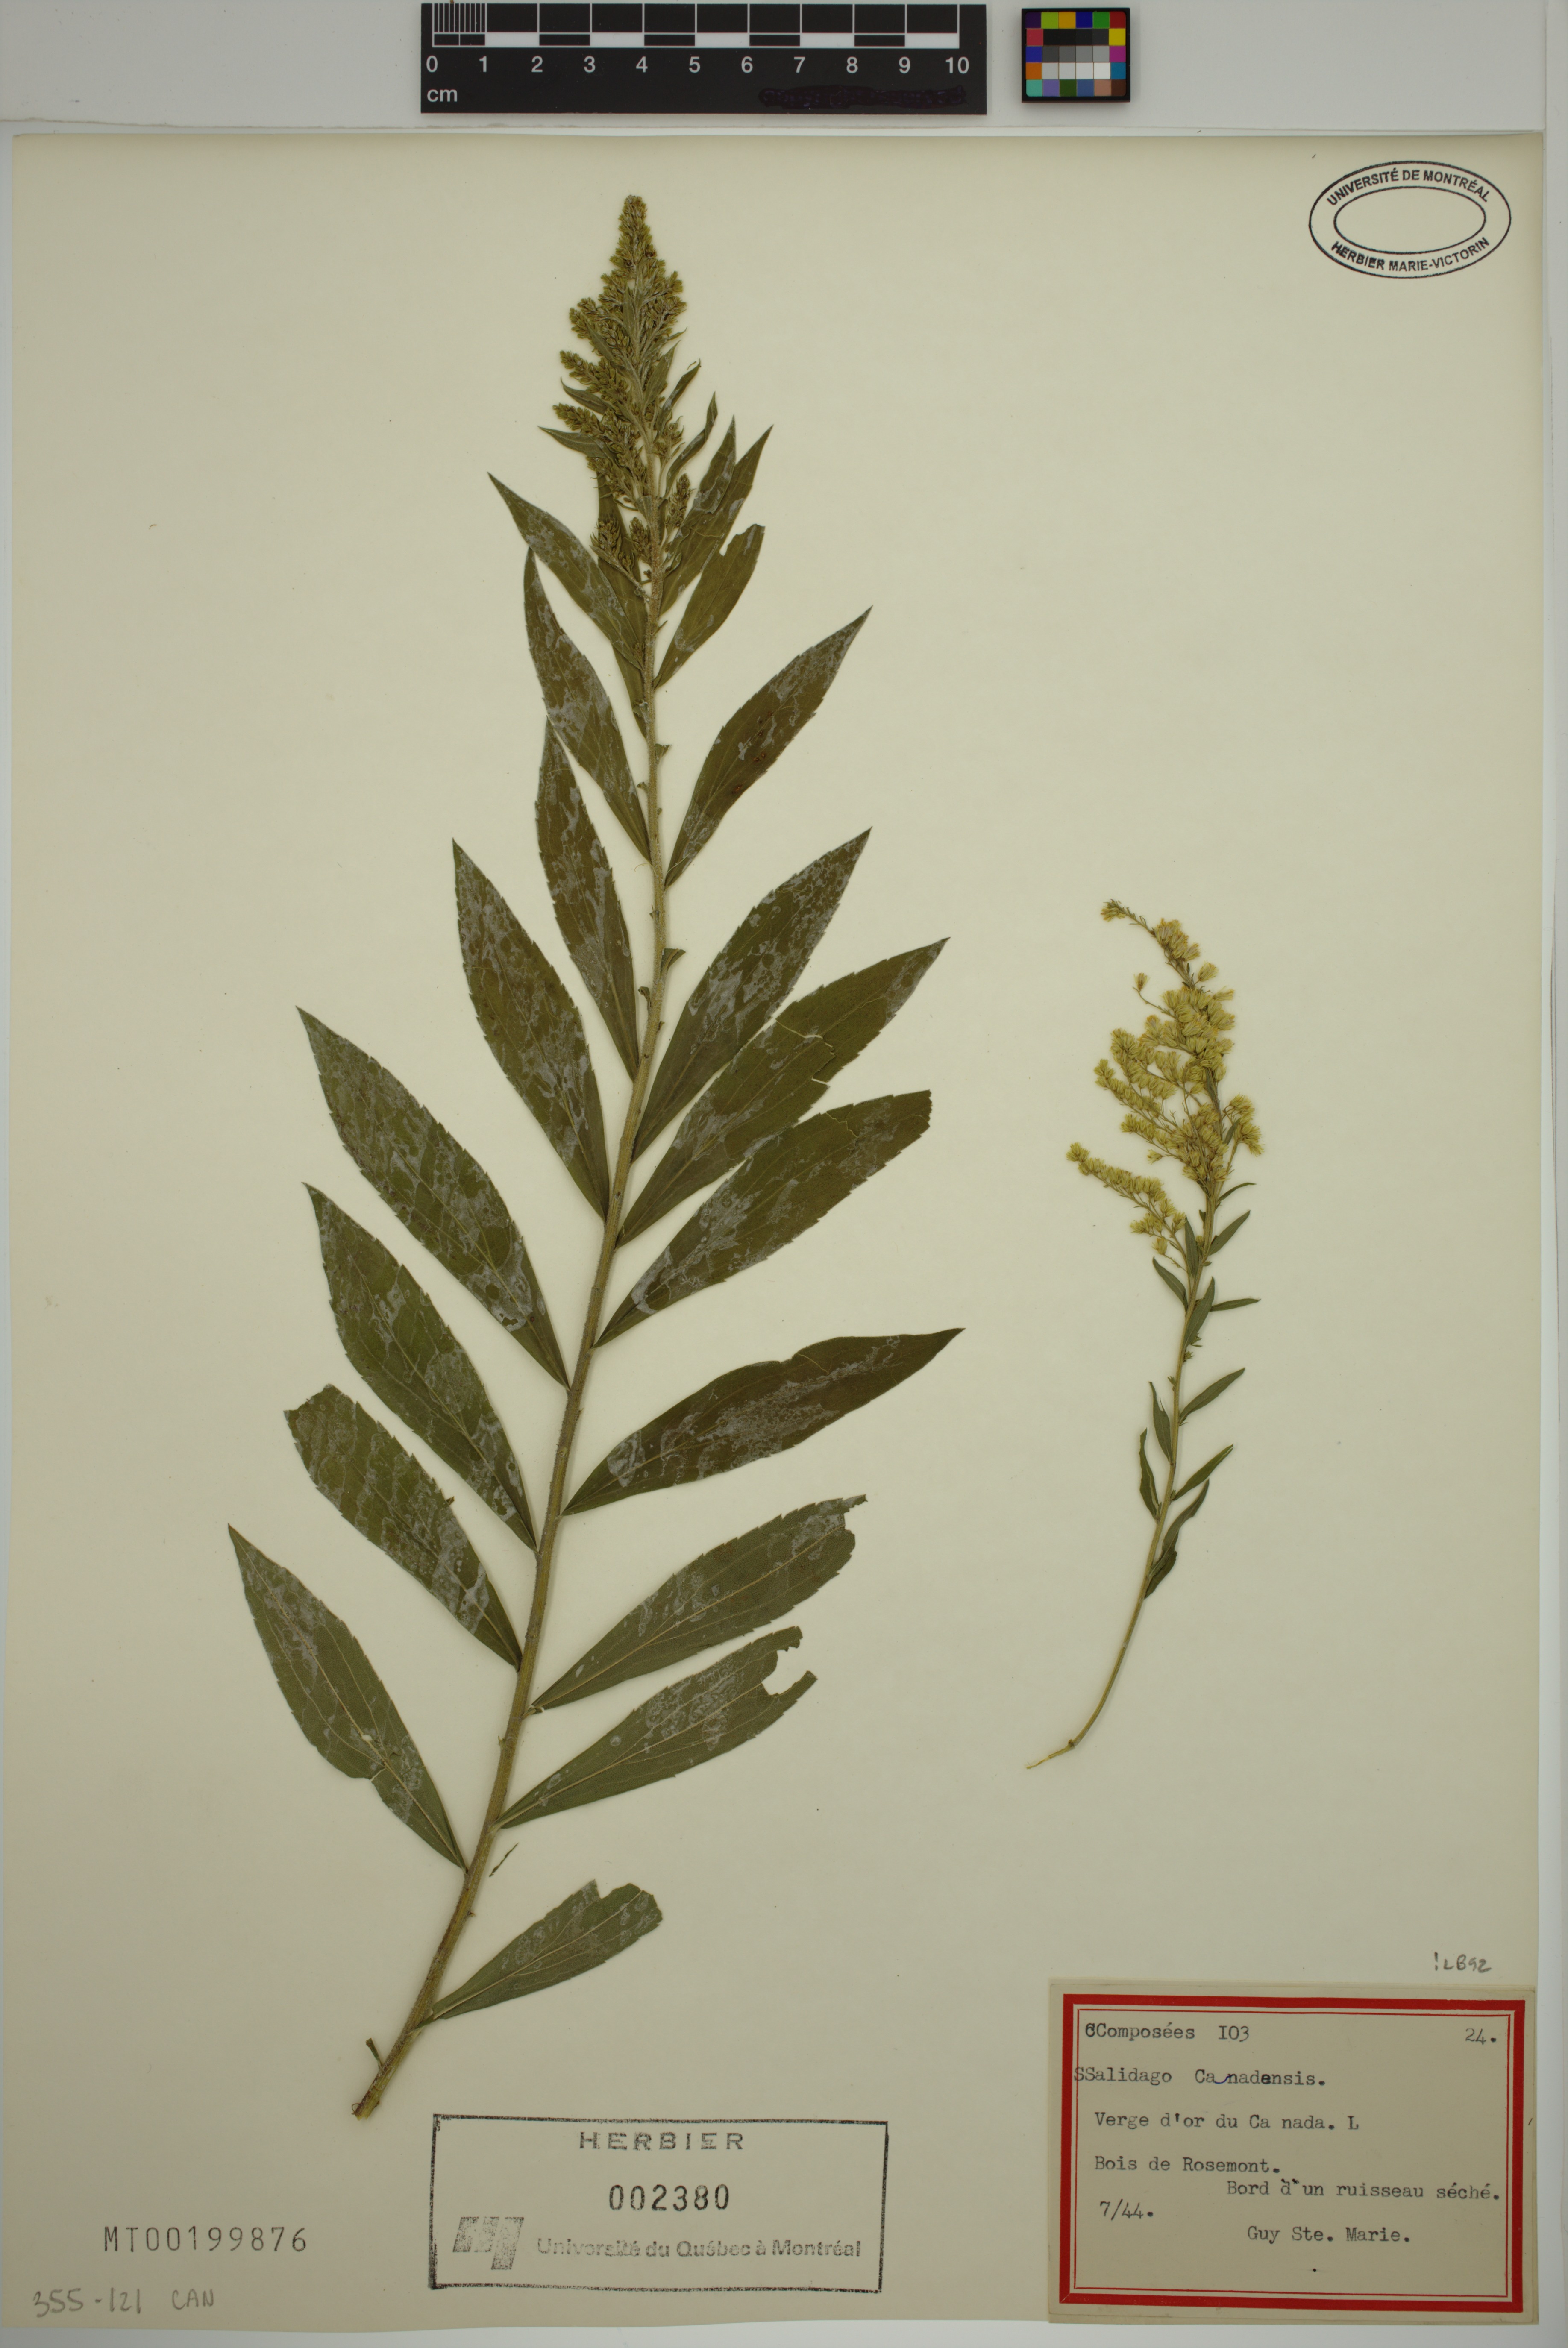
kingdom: Plantae
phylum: Tracheophyta
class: Magnoliopsida
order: Asterales
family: Asteraceae
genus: Solidago
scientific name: Solidago canadensis
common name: Canada goldenrod
